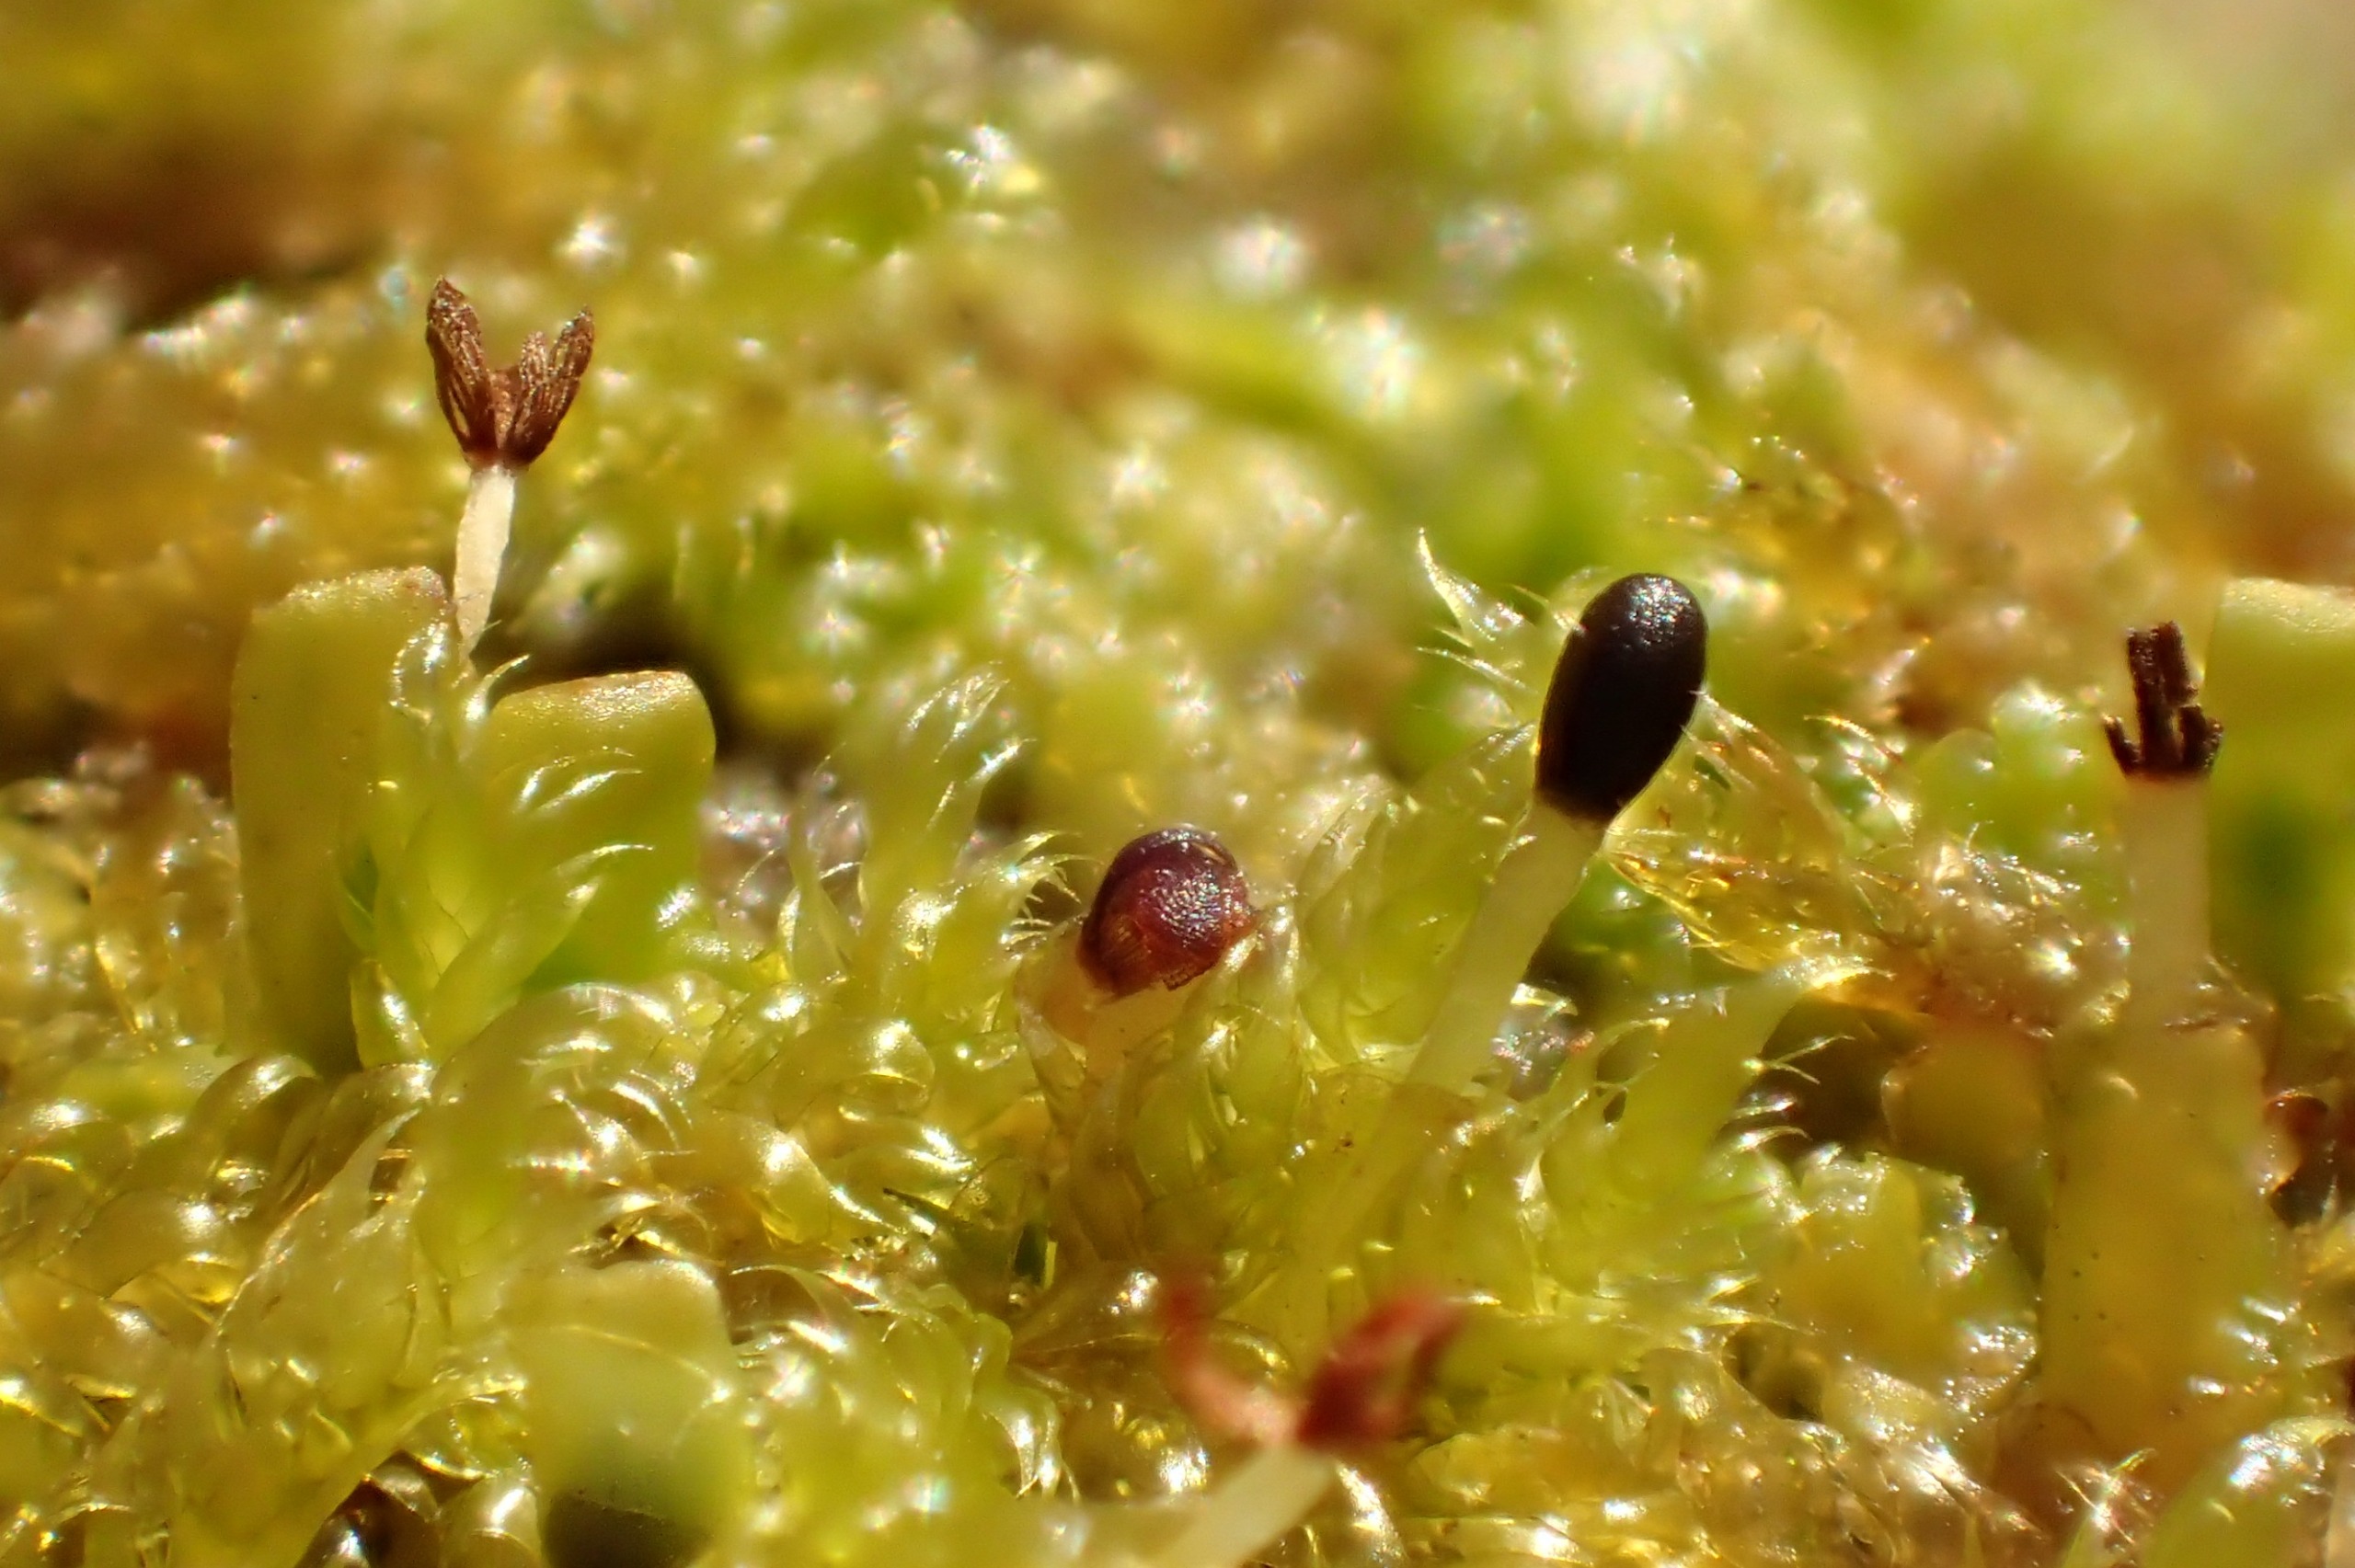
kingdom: Plantae
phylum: Marchantiophyta
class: Jungermanniopsida
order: Porellales
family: Radulaceae
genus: Radula
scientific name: Radula complanata
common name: Almindelig spartelmos
